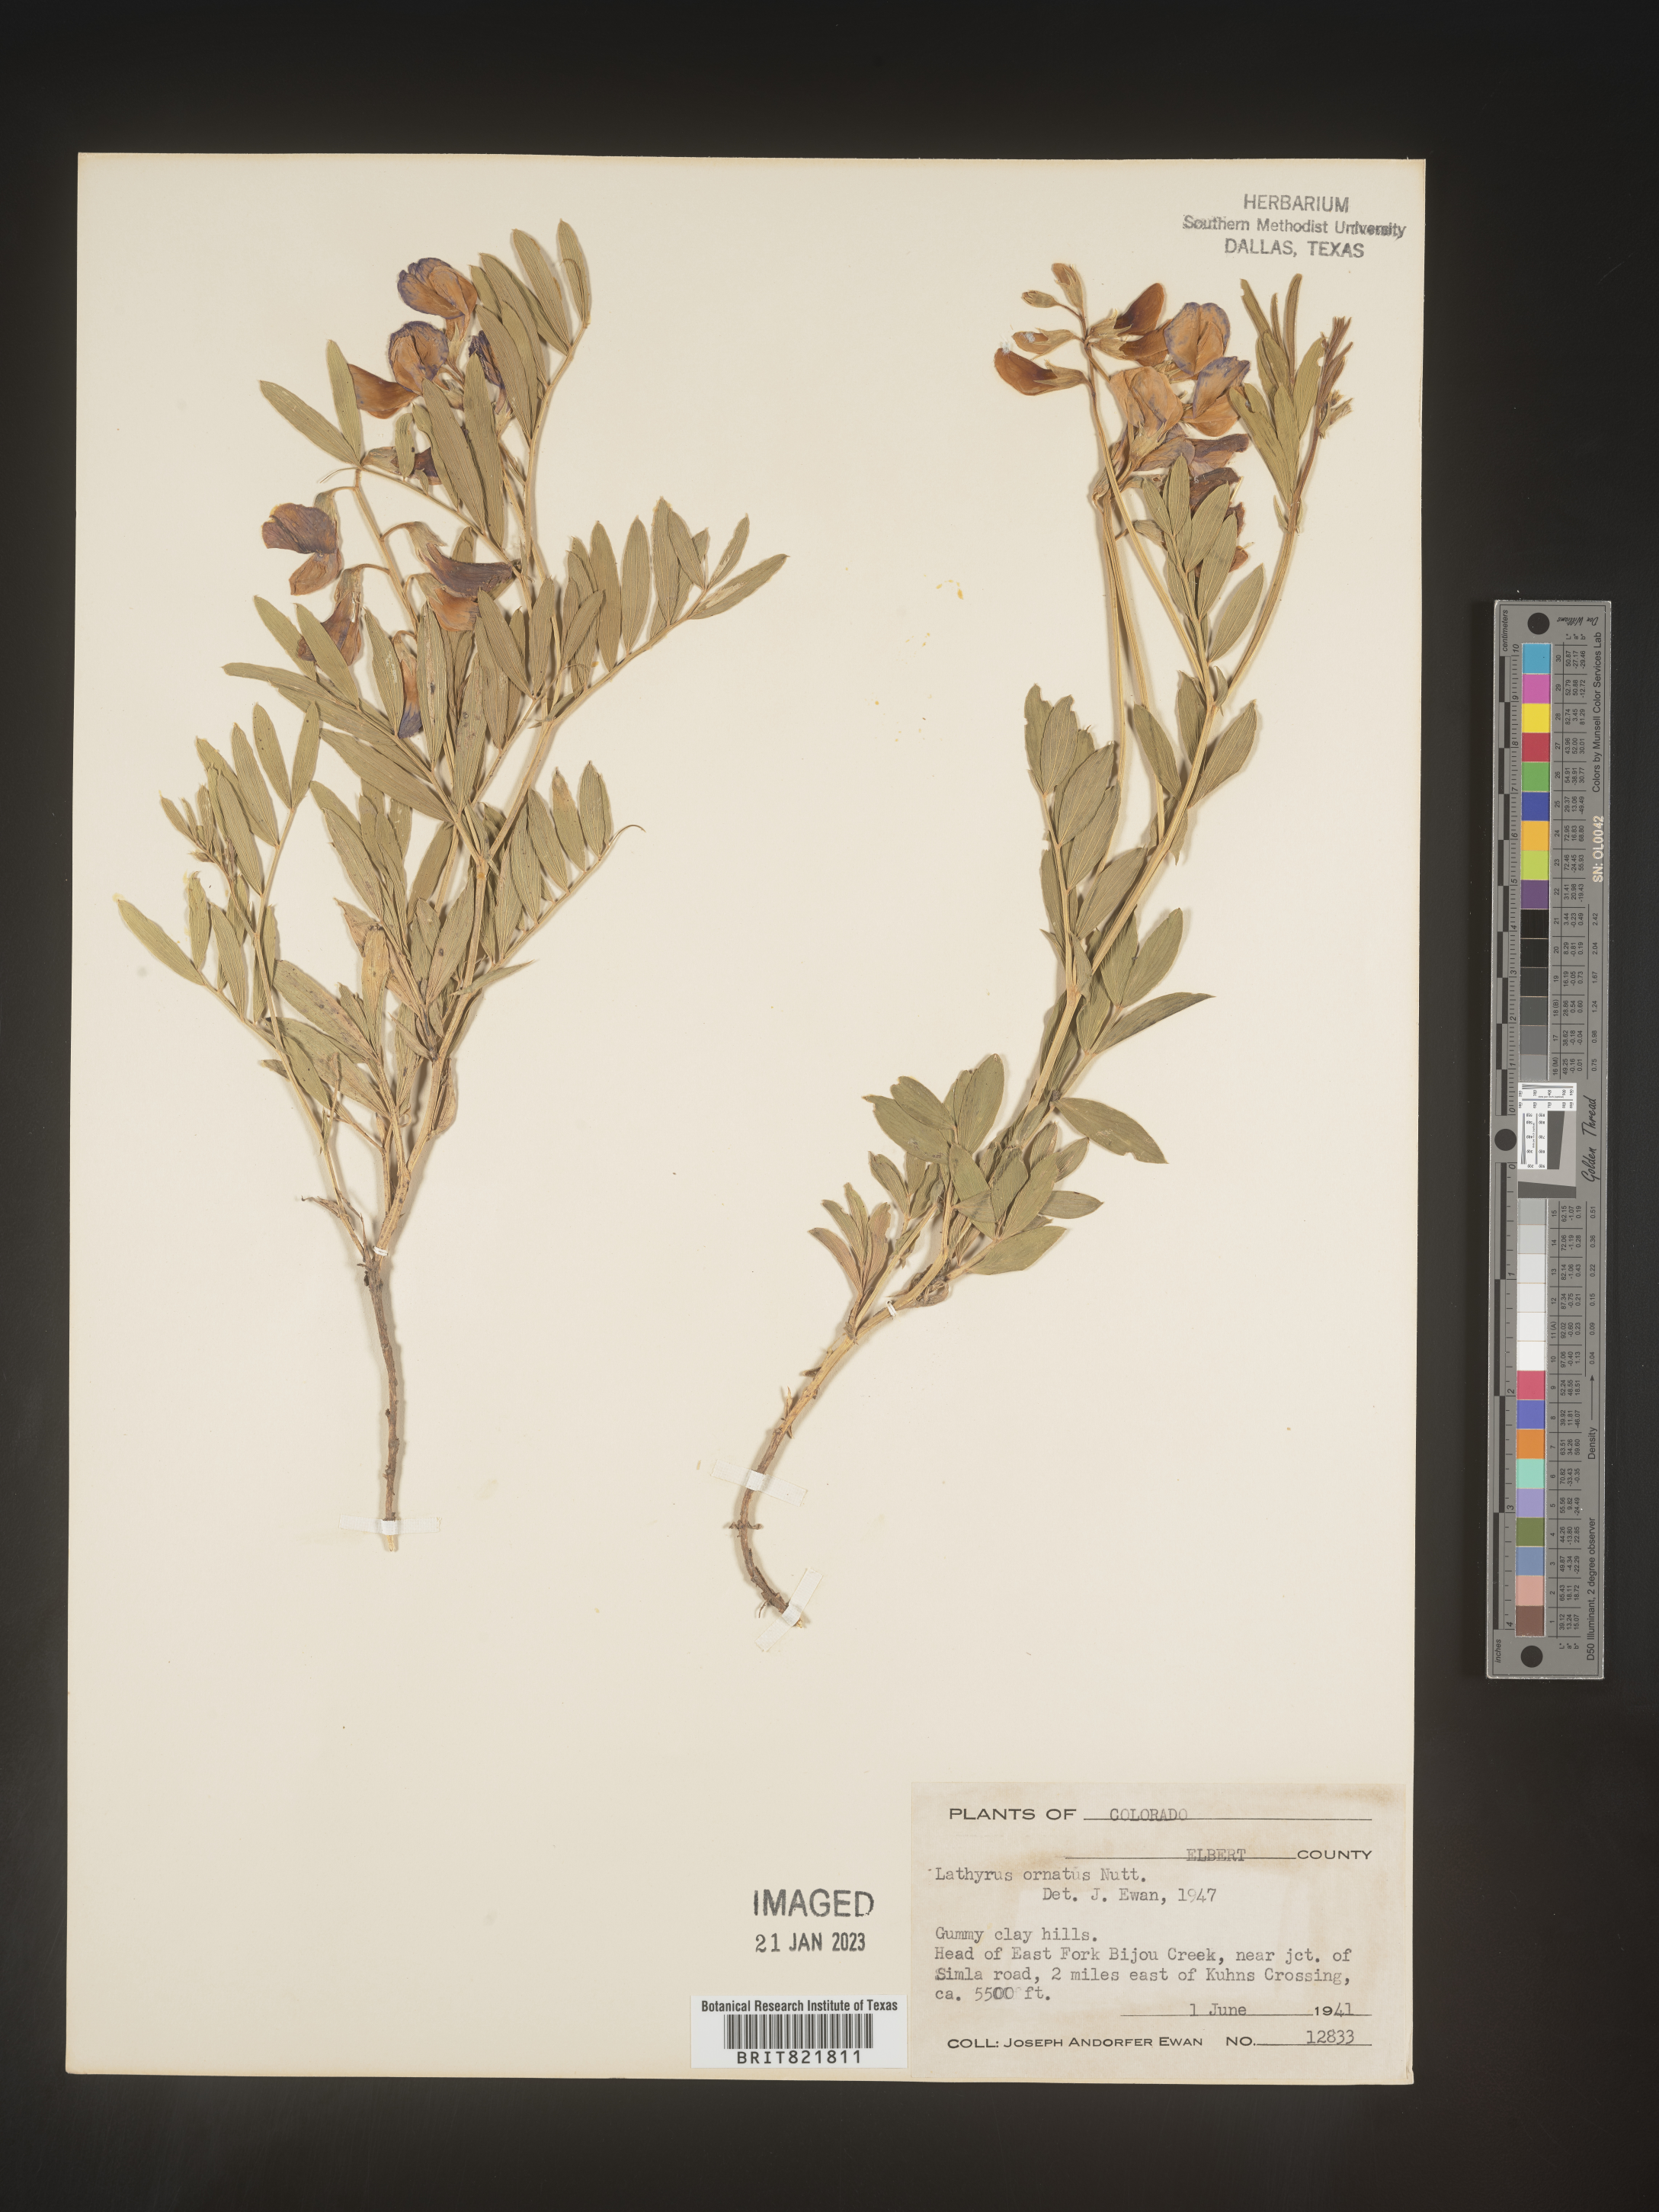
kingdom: Plantae
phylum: Tracheophyta
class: Magnoliopsida
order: Fabales
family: Fabaceae
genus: Lathyrus
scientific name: Lathyrus
